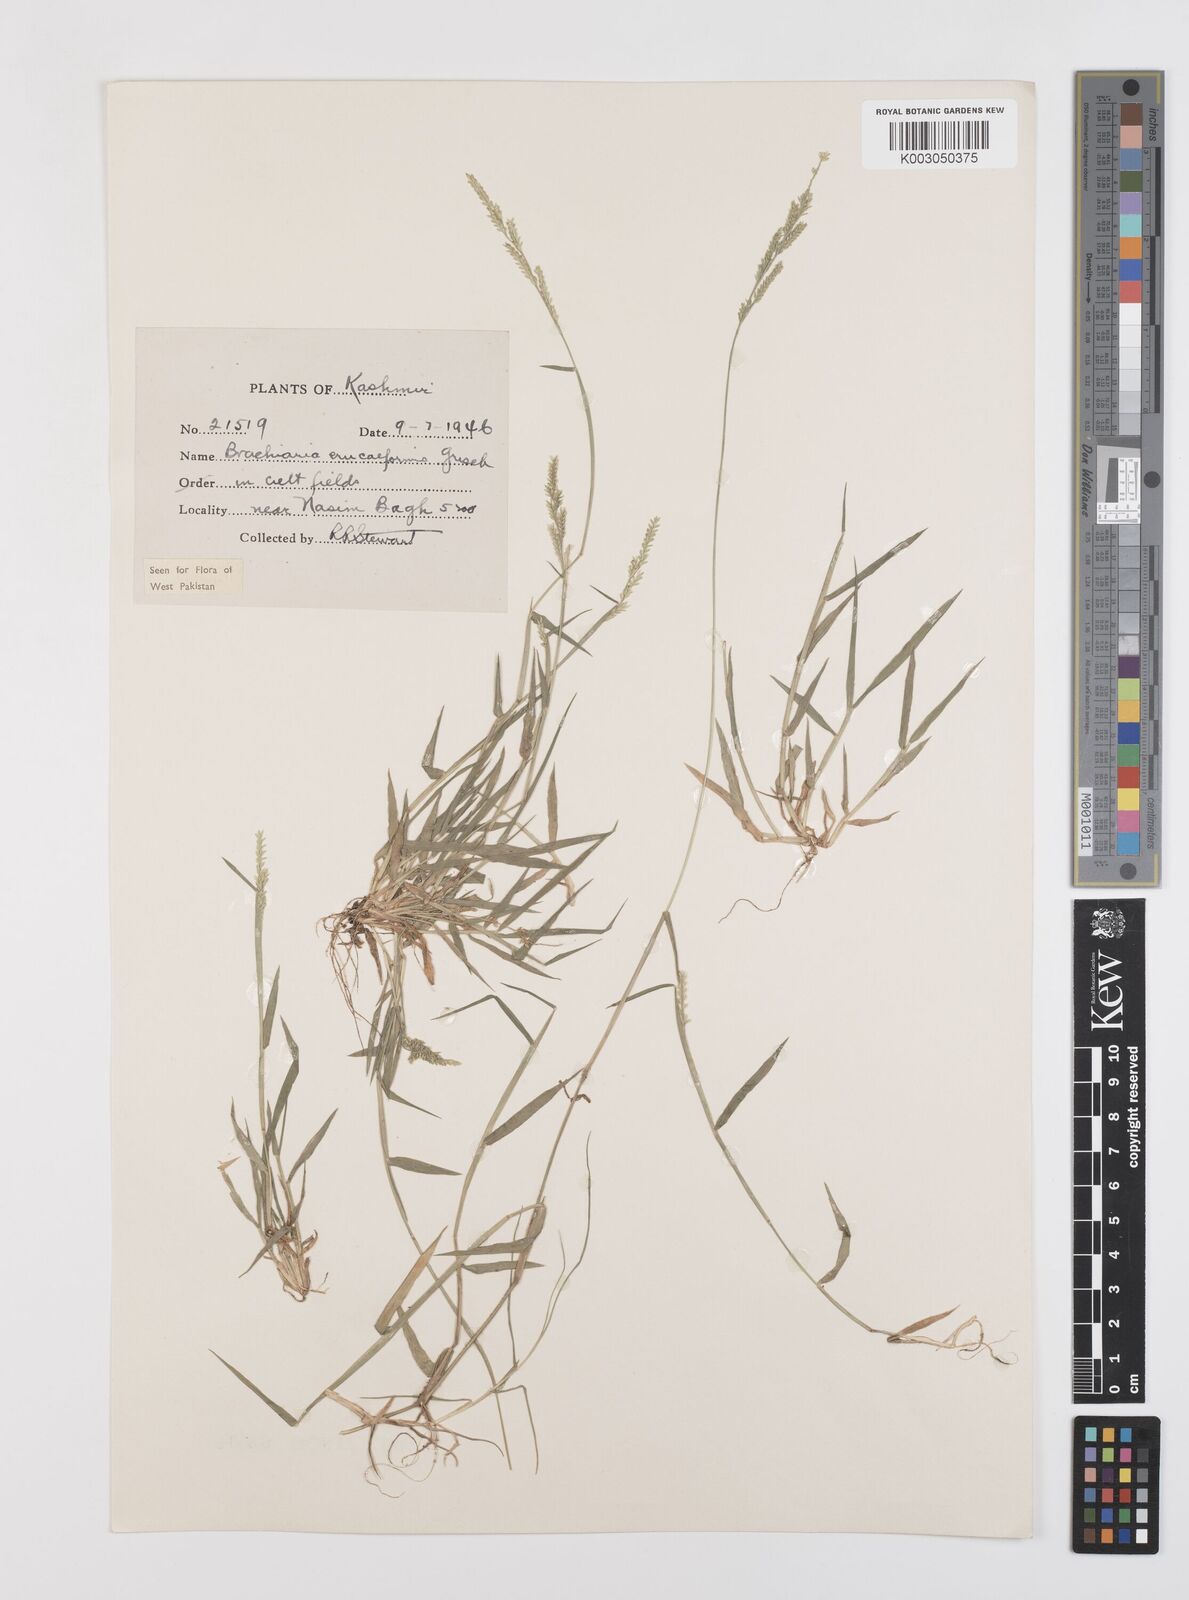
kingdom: Plantae
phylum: Tracheophyta
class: Liliopsida
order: Poales
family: Poaceae
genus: Moorochloa
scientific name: Moorochloa eruciformis
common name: Sweet signalgrass
